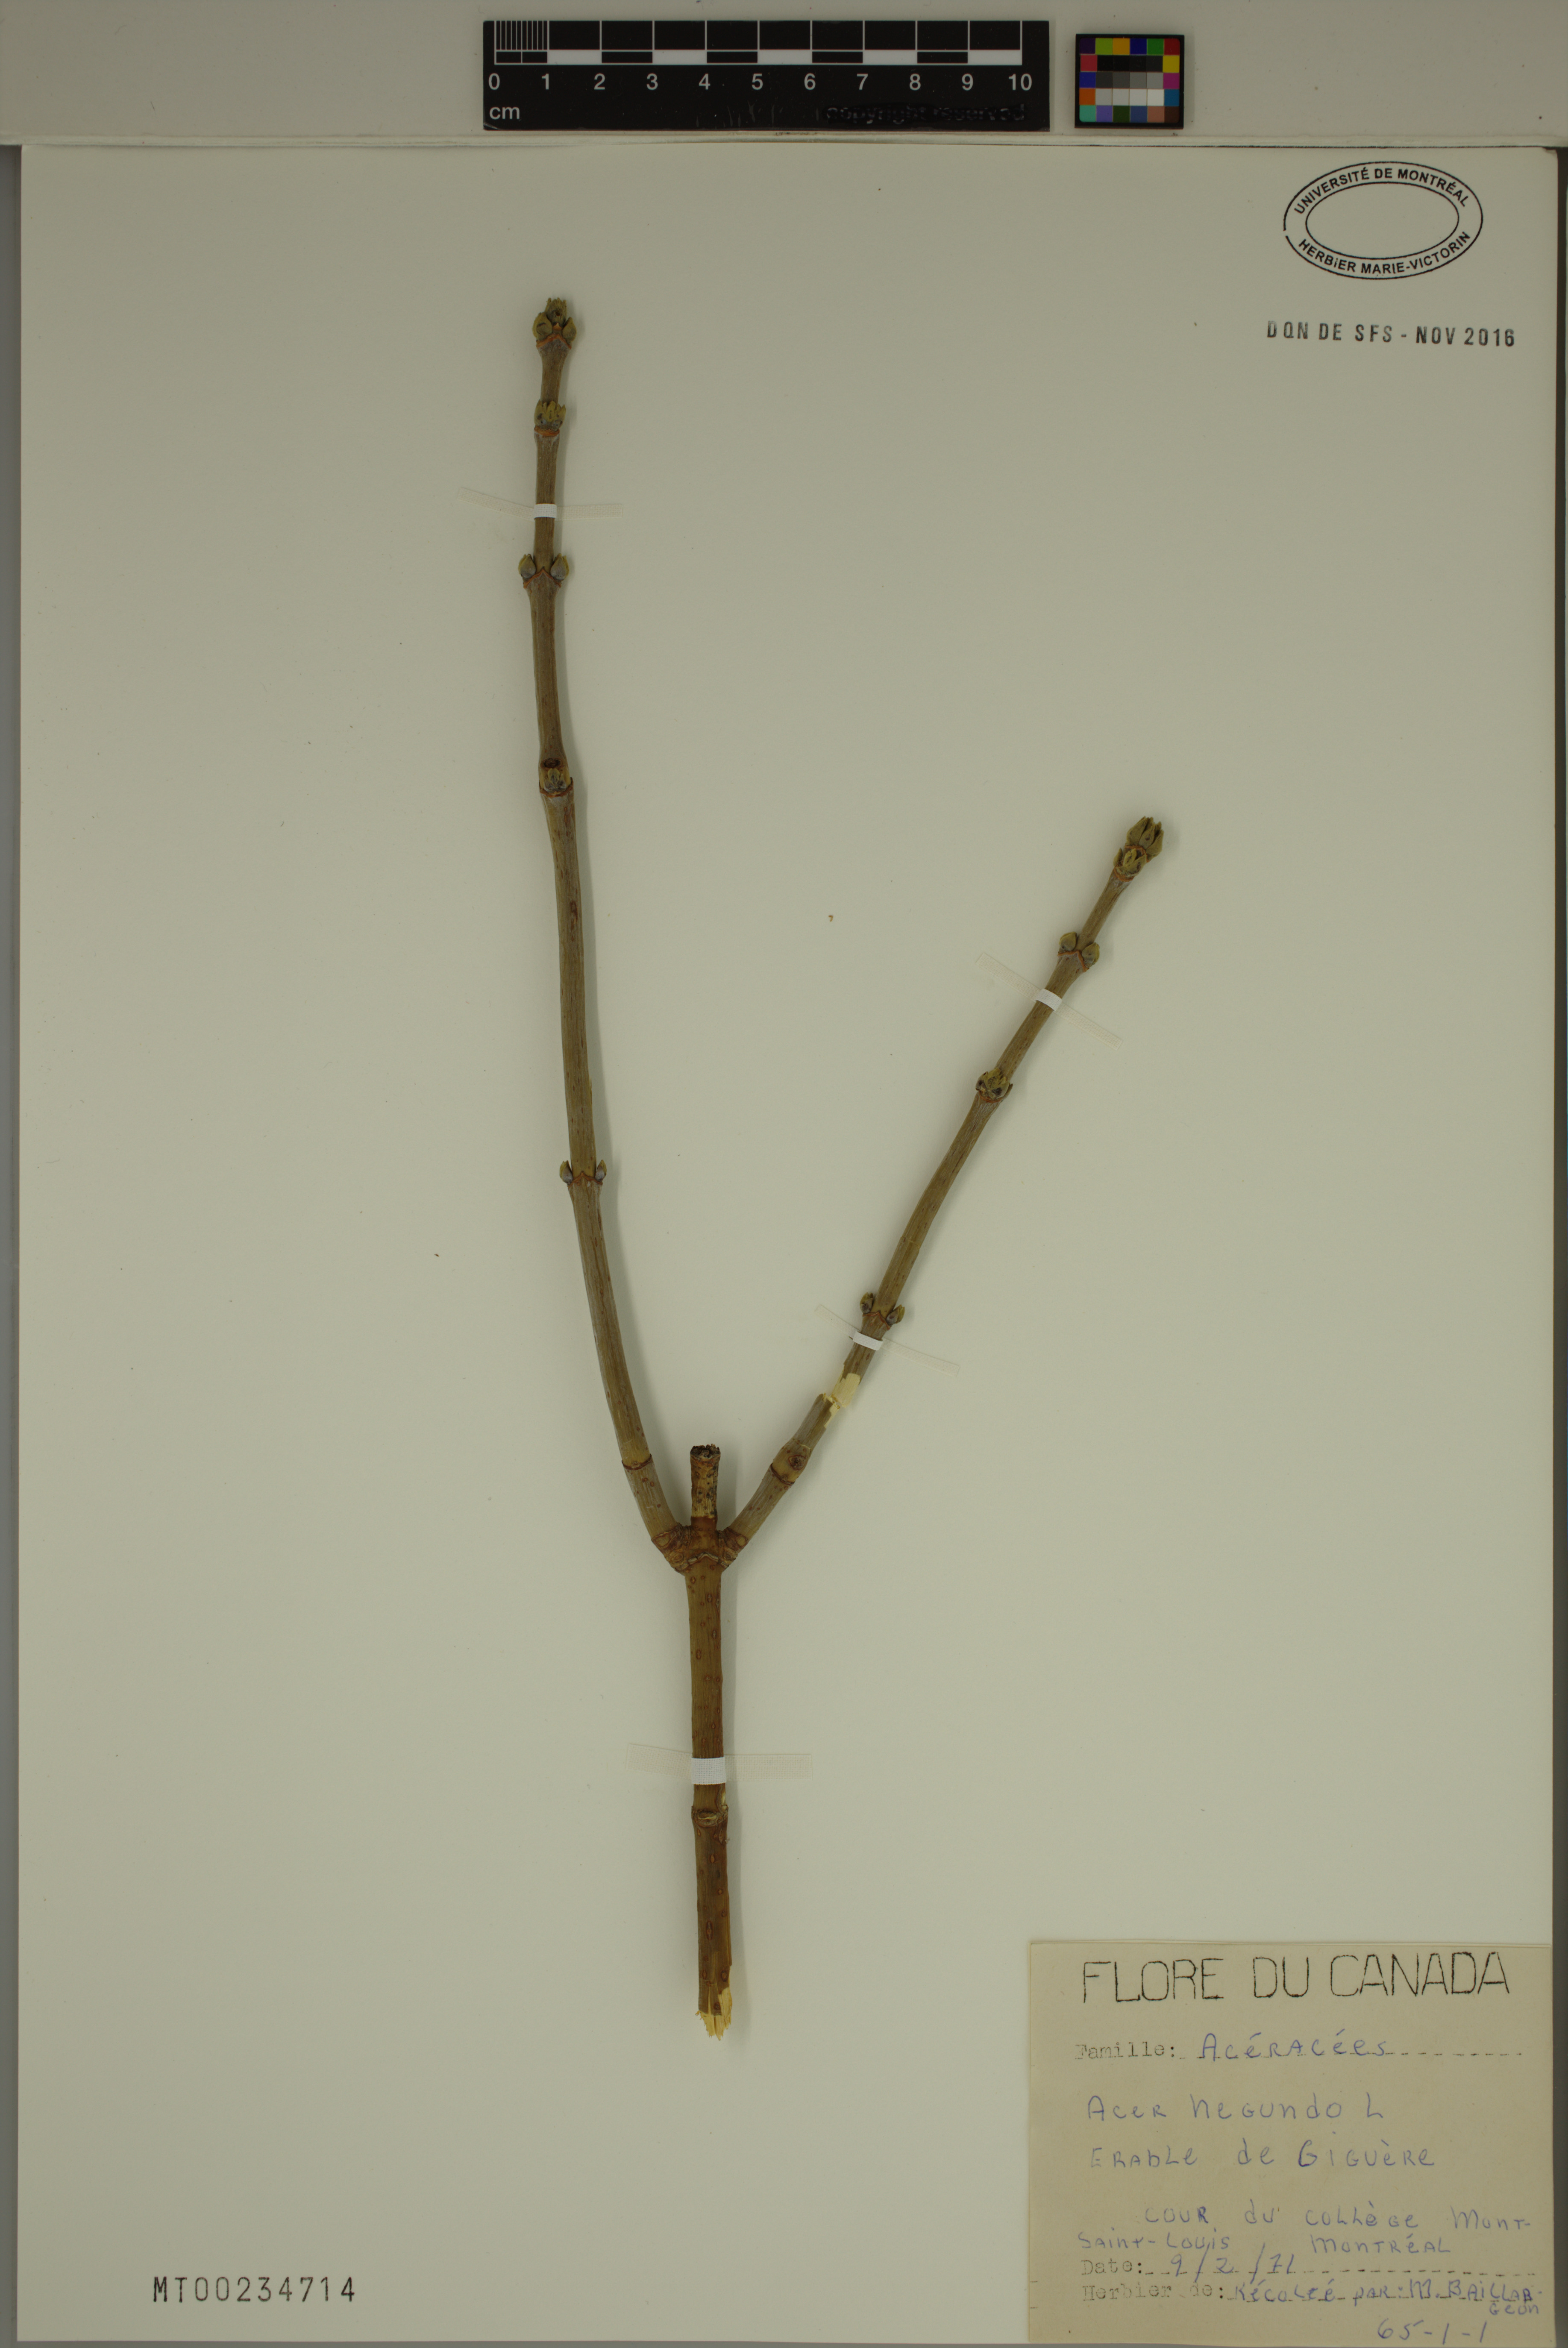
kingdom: Plantae
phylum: Tracheophyta
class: Magnoliopsida
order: Sapindales
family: Sapindaceae
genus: Acer
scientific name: Acer negundo
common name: Ashleaf maple
